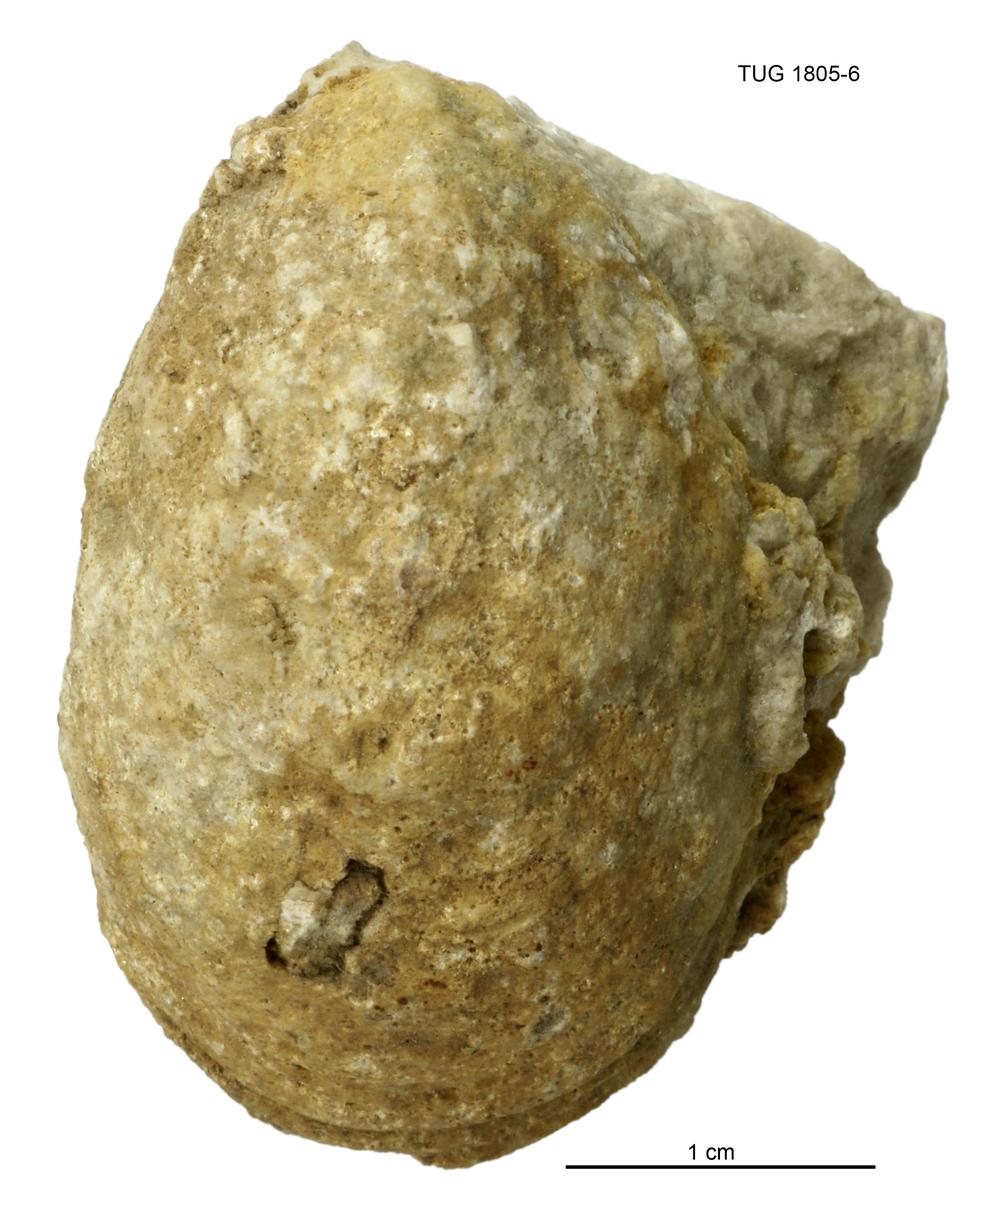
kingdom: Animalia
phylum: Mollusca
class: Monoplacophora
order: Tryblidiida
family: Tryblidiidae
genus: Tryblidium
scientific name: Tryblidium
